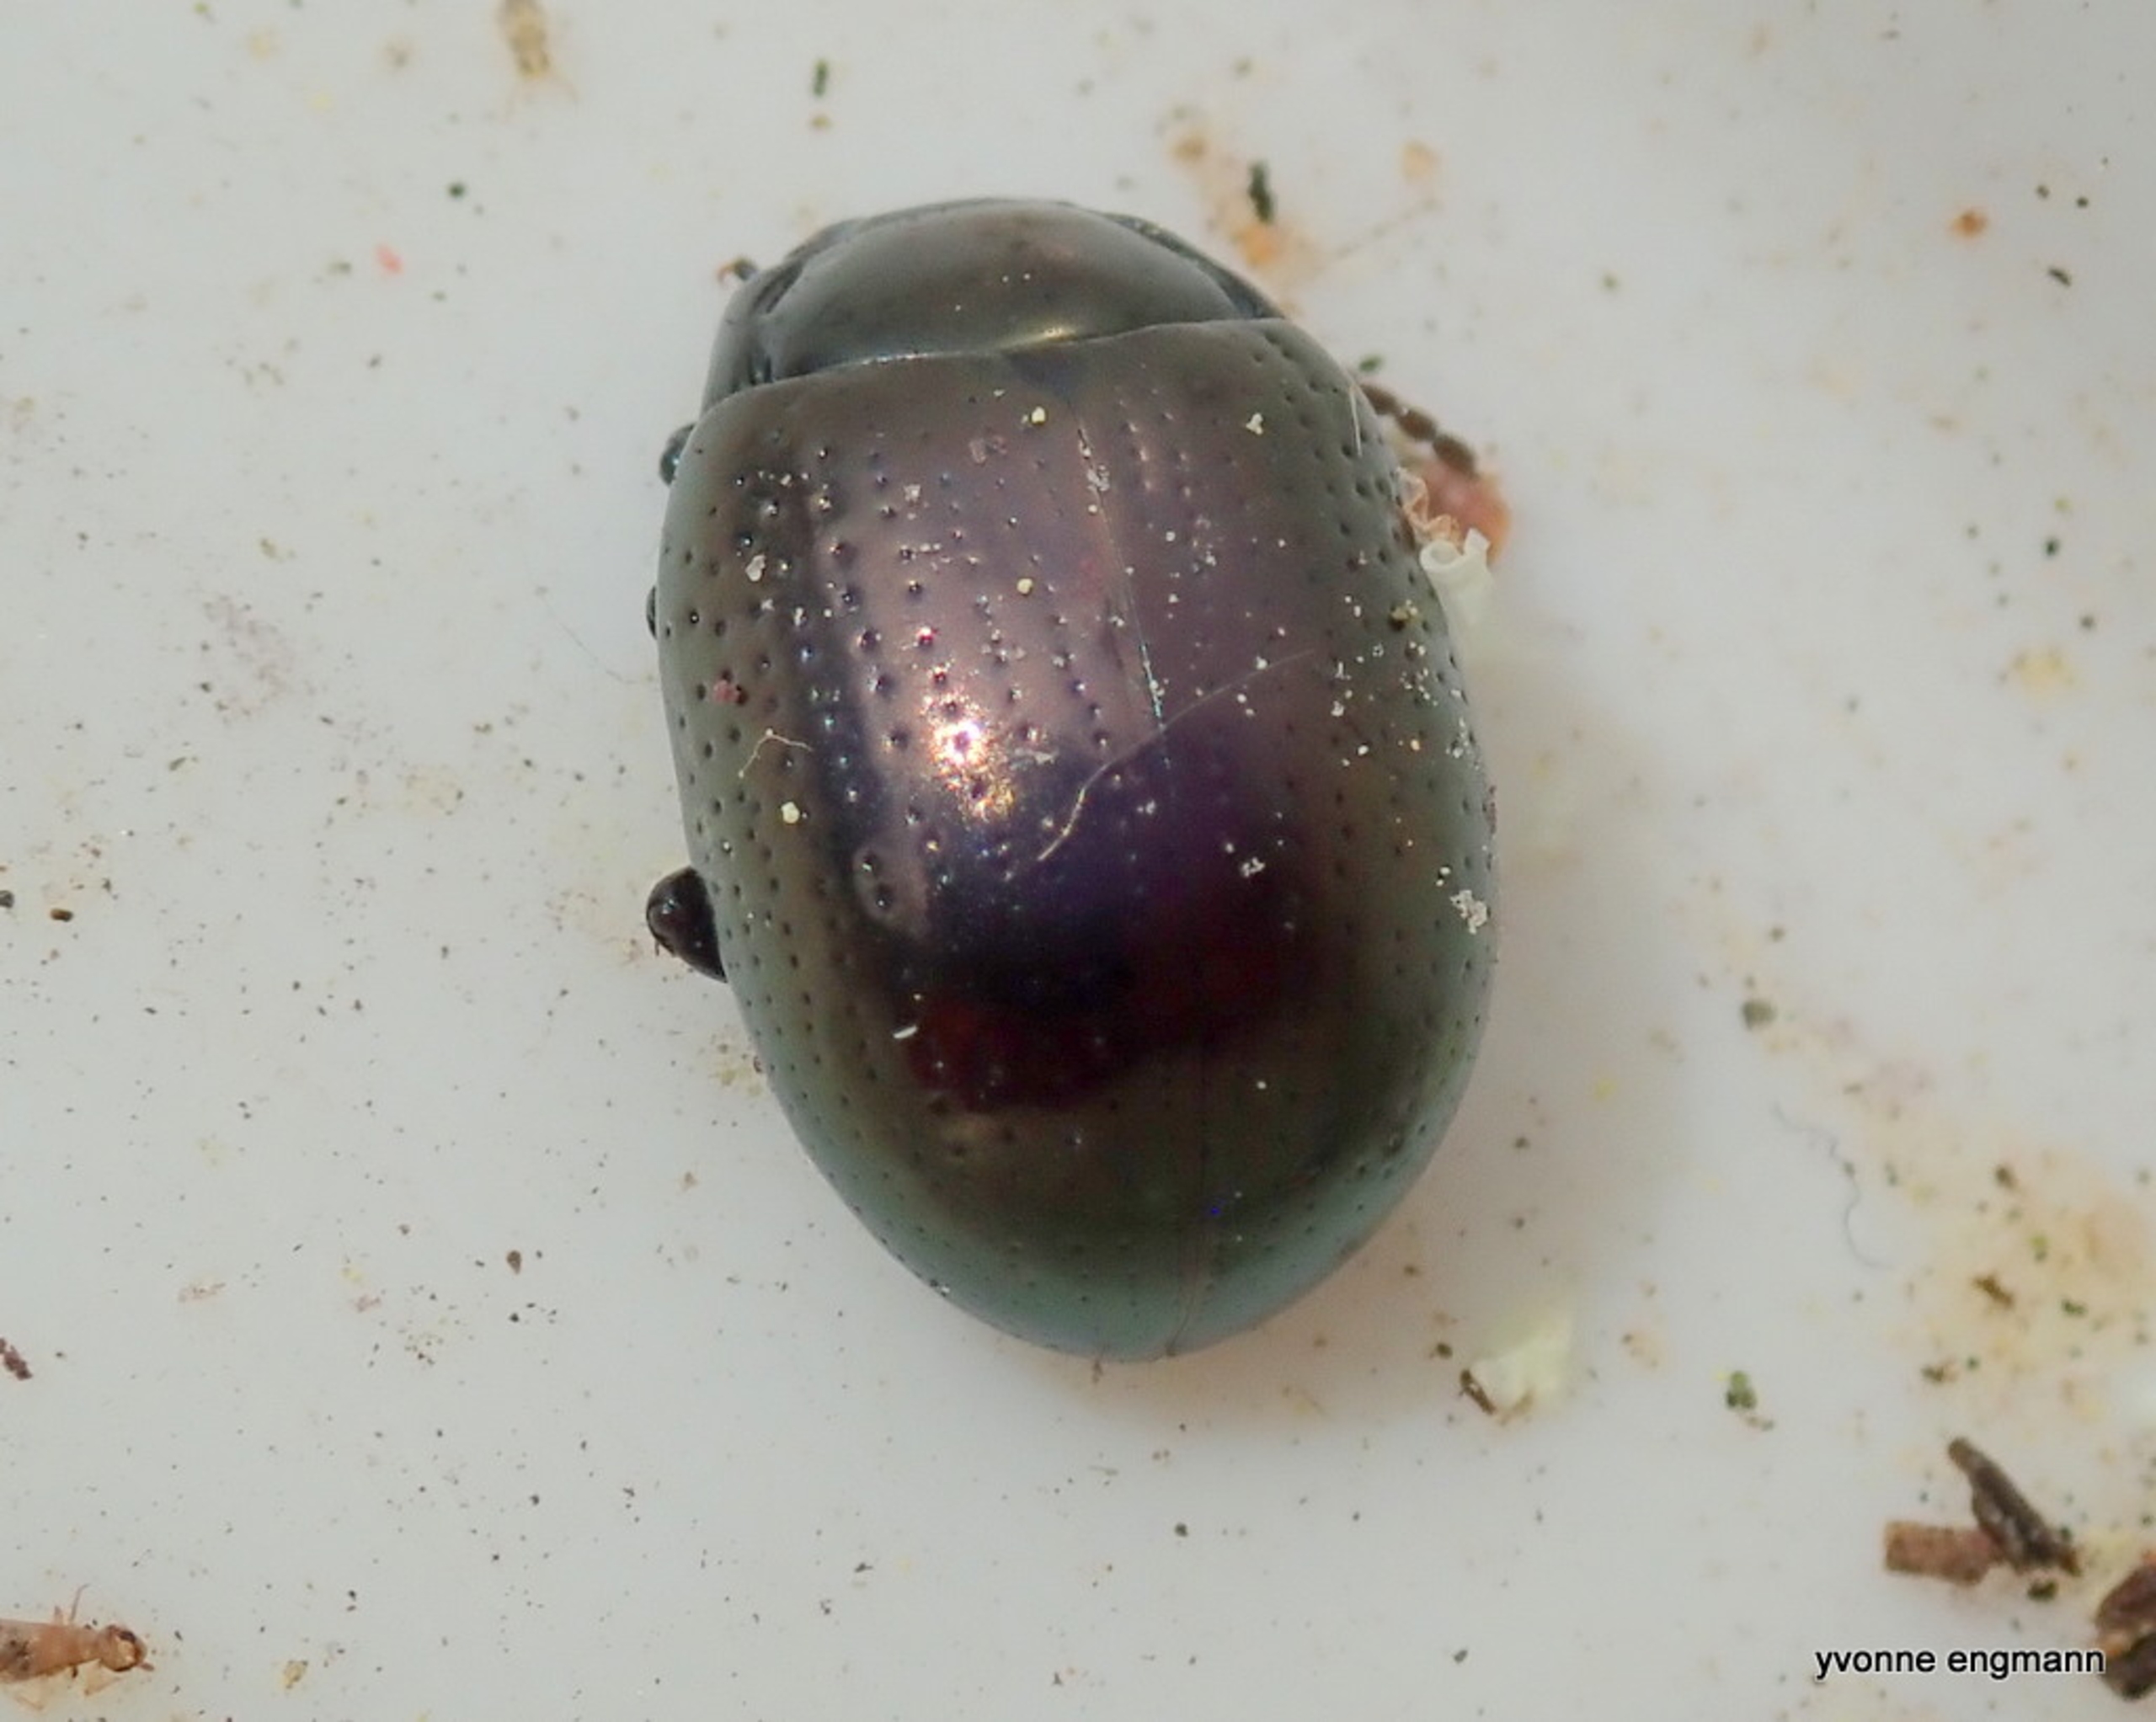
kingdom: Animalia
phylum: Arthropoda
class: Insecta
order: Coleoptera
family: Chrysomelidae
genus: Chrysolina
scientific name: Chrysolina oricalcia
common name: Rækkepunkteret guldbille
